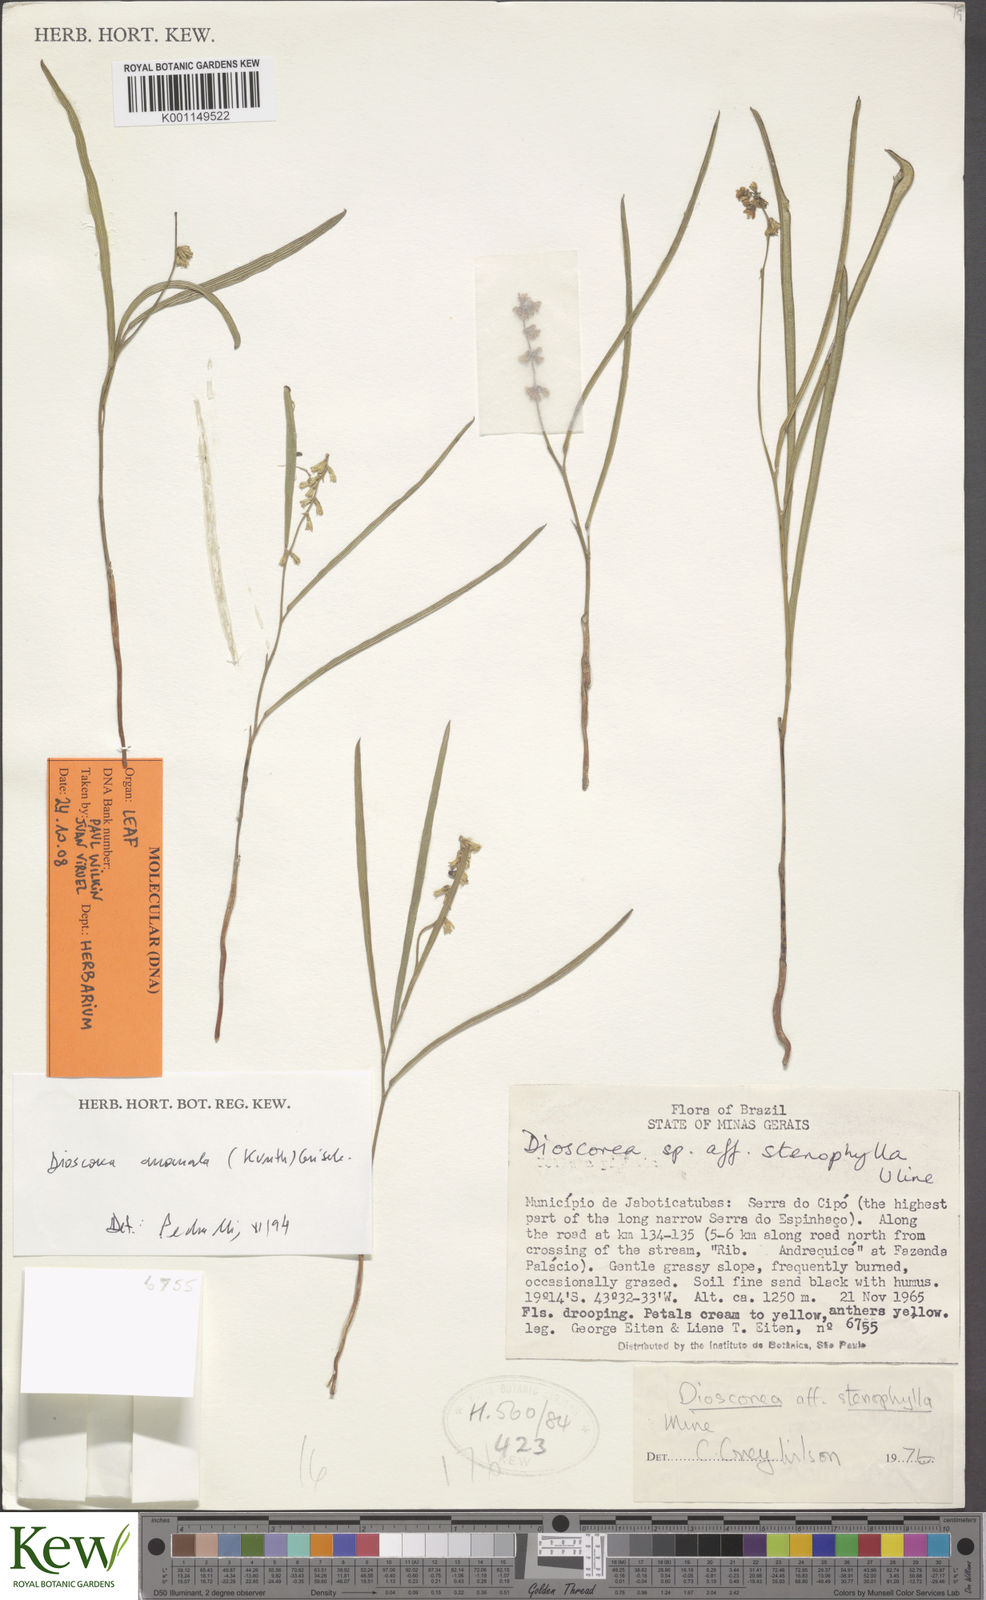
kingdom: Plantae
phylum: Tracheophyta
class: Liliopsida
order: Dioscoreales
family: Dioscoreaceae
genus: Dioscorea
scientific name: Dioscorea anomala
